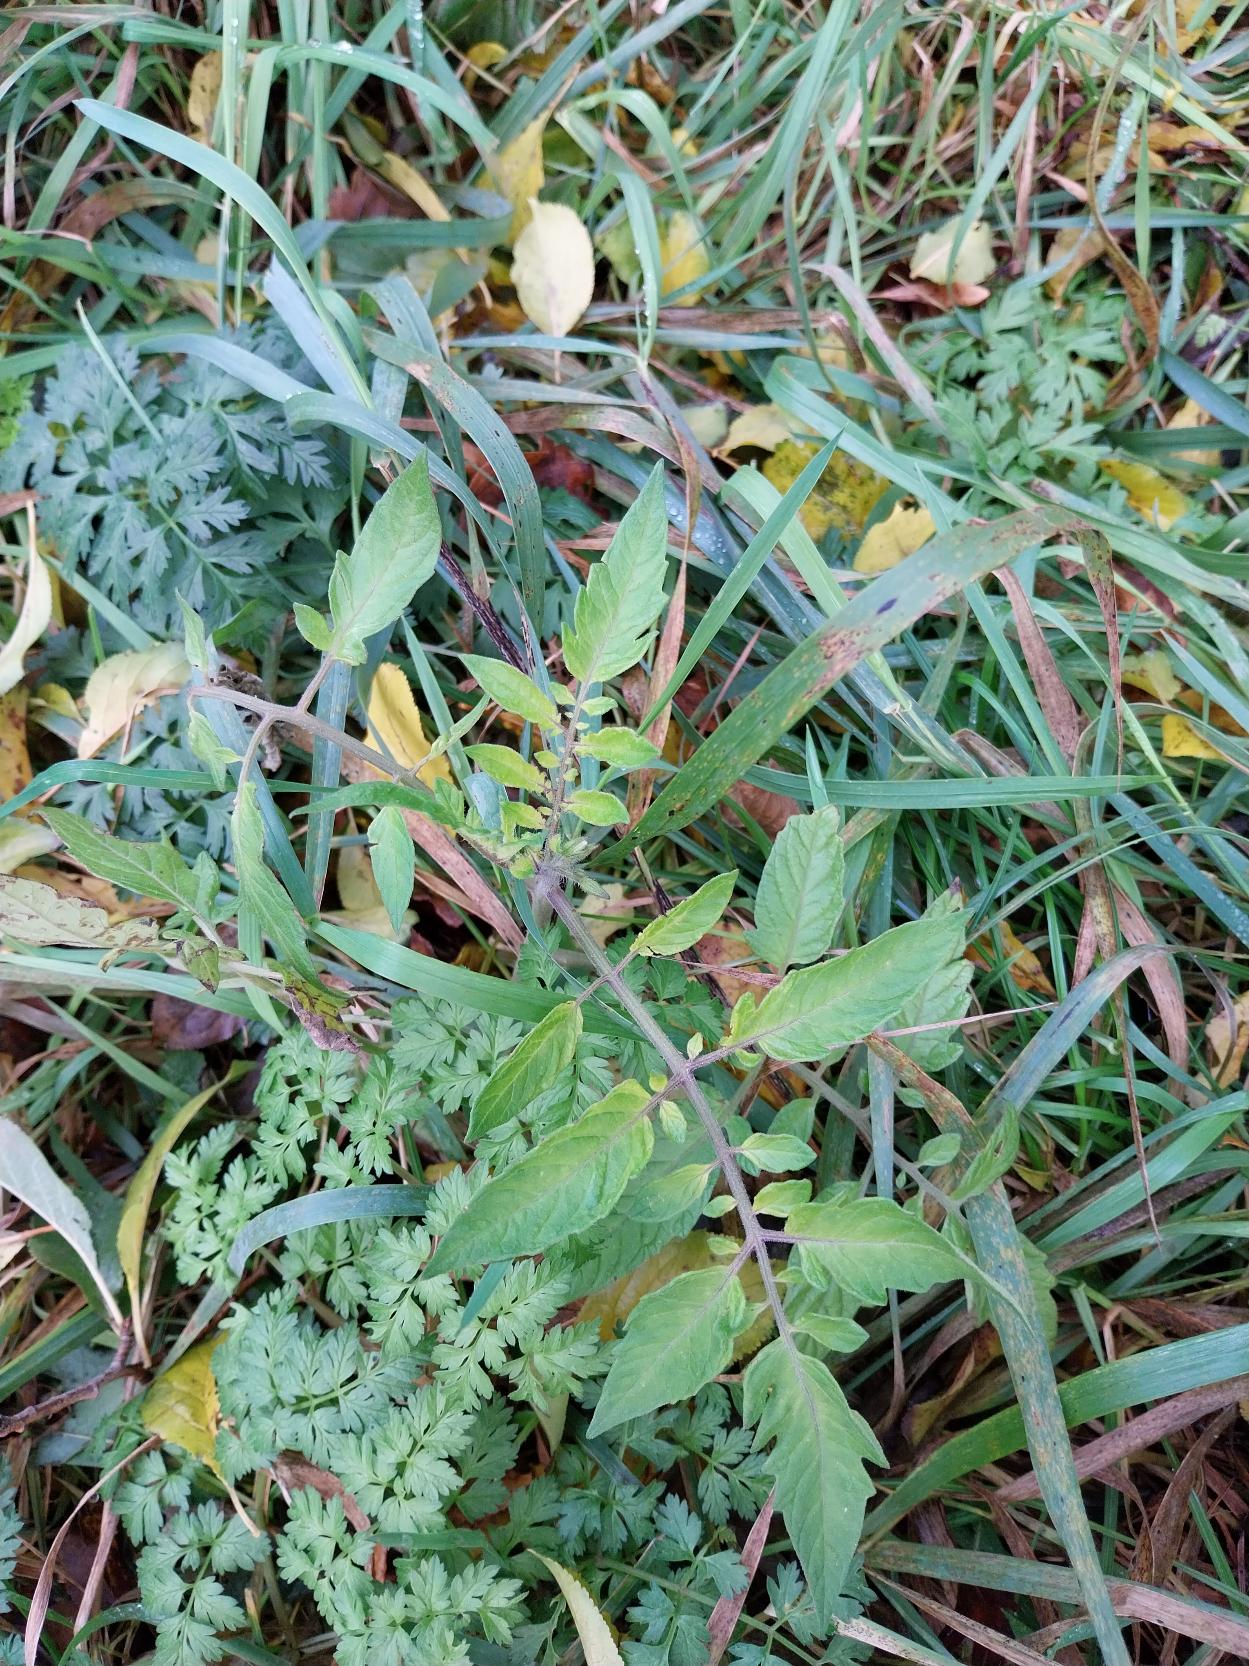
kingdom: Plantae
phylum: Tracheophyta
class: Magnoliopsida
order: Solanales
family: Solanaceae
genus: Solanum
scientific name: Solanum lycopersicum
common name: Tomat
